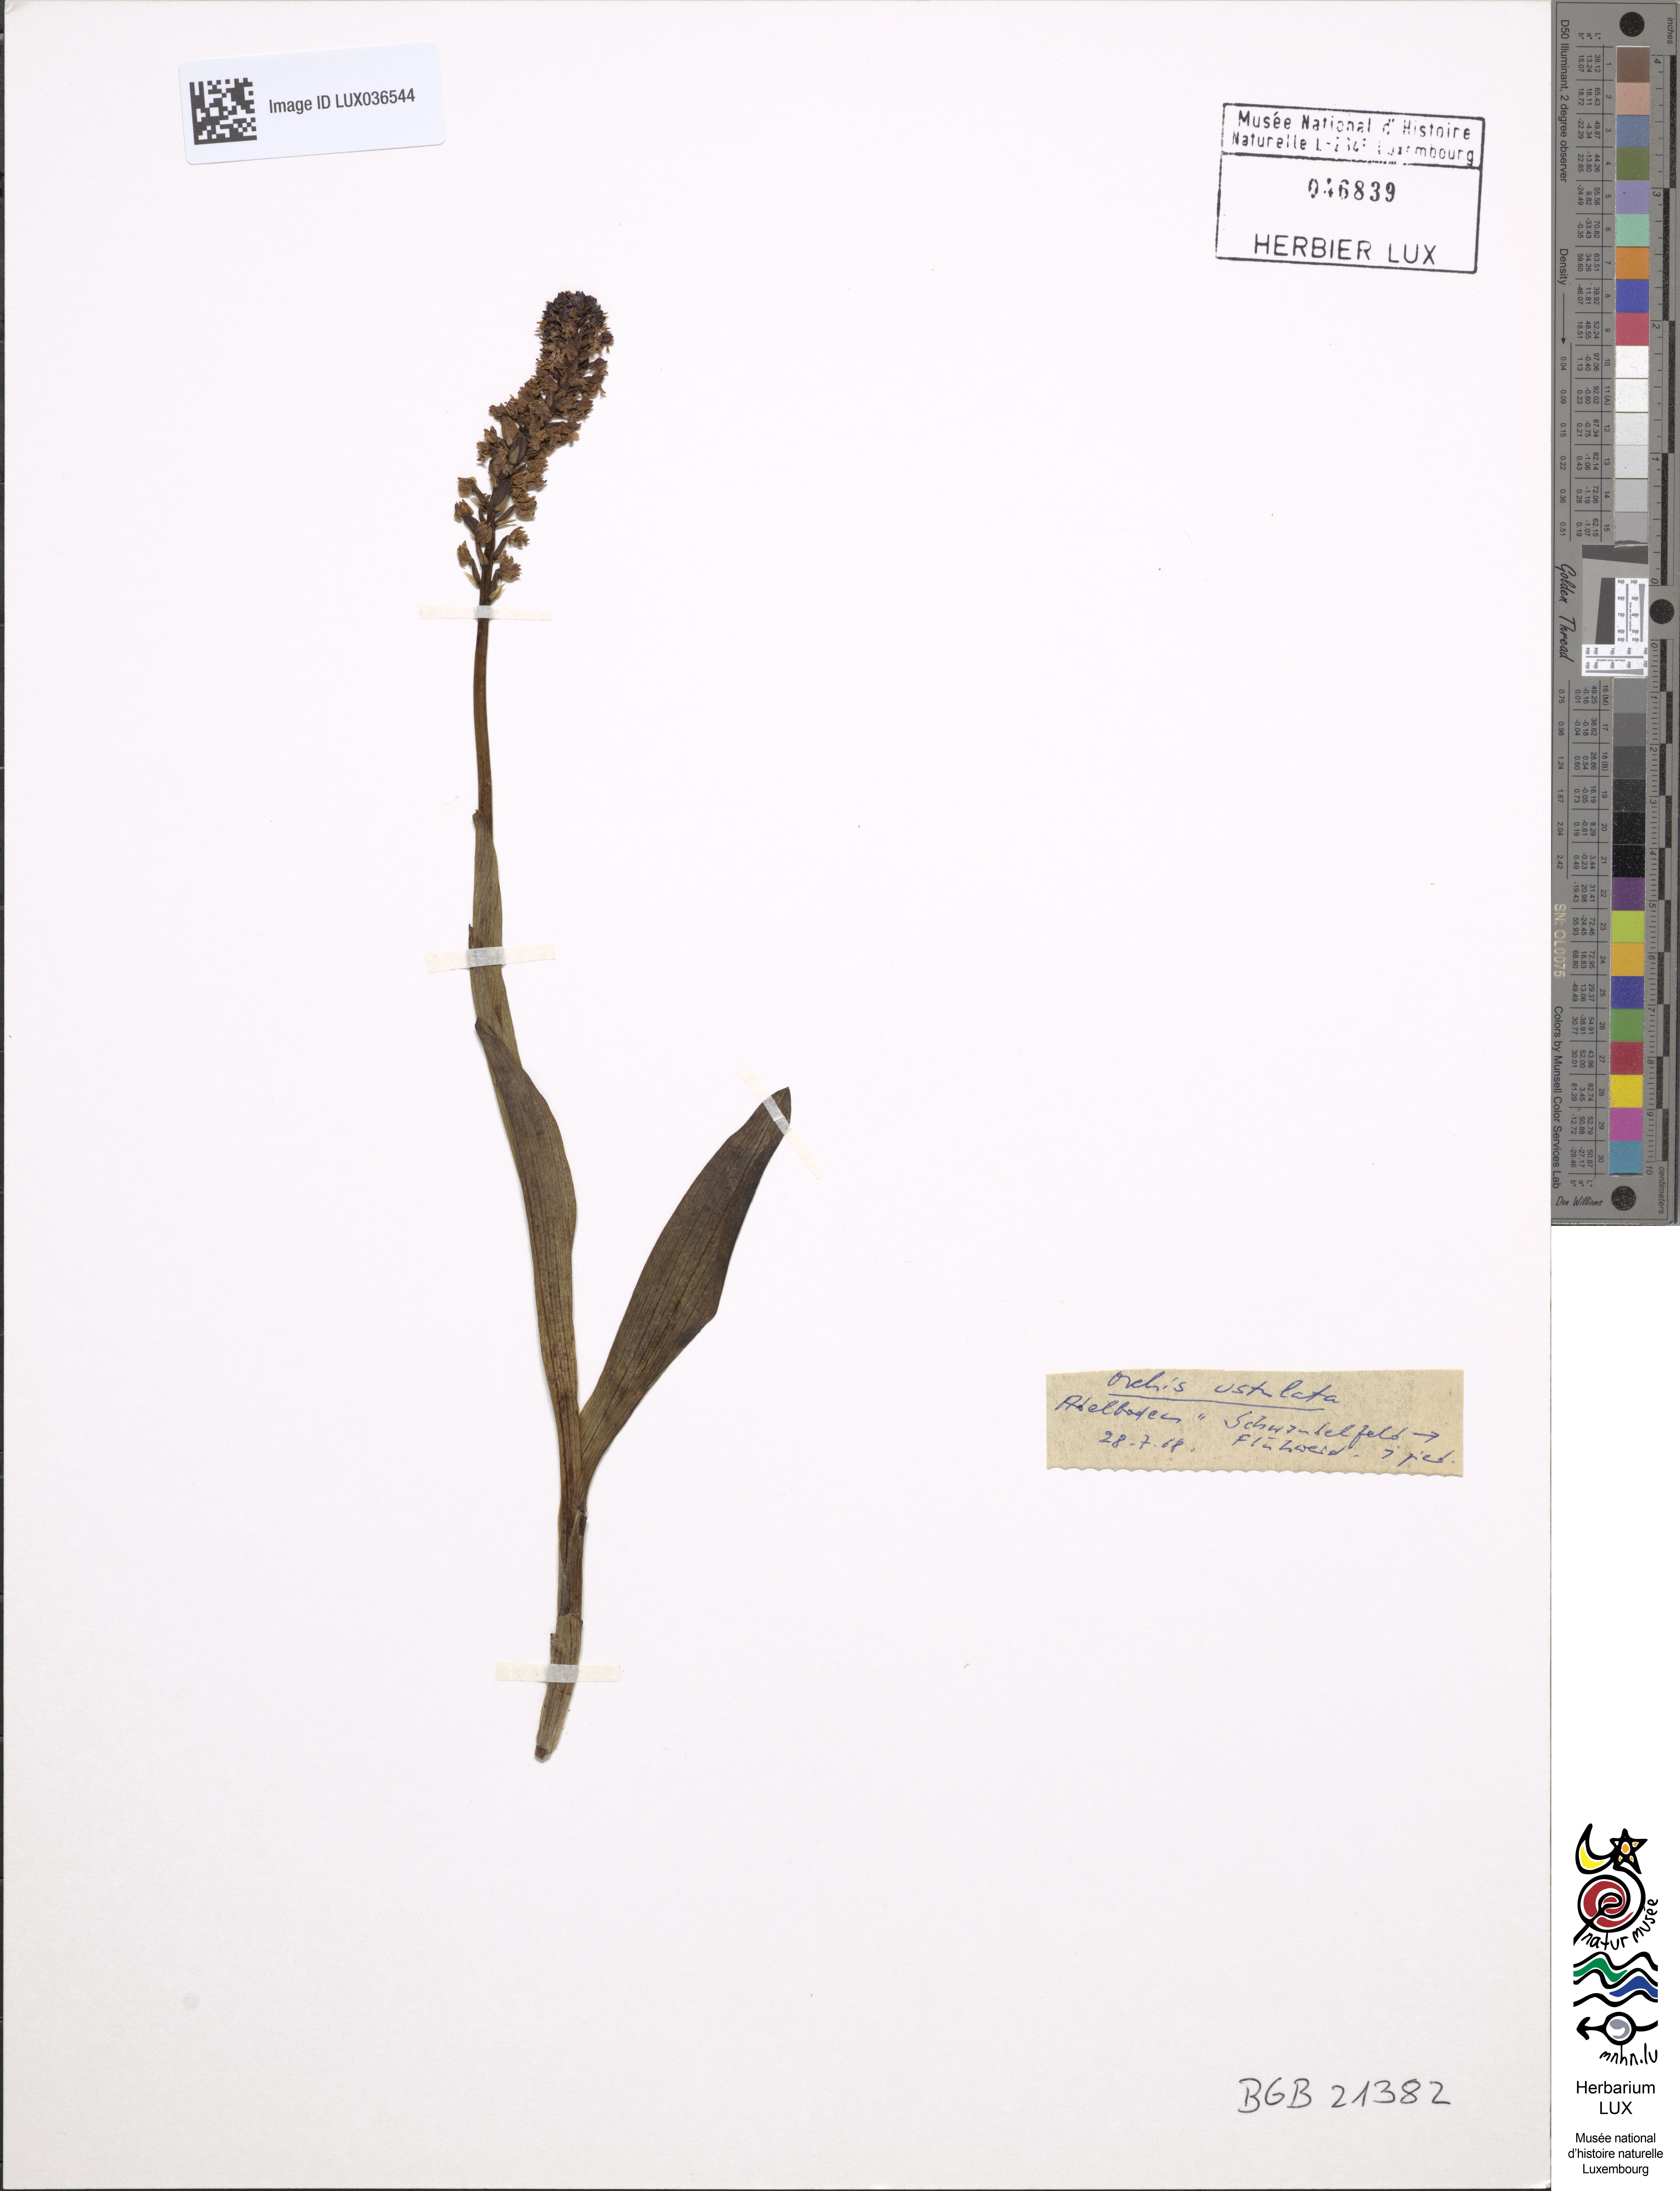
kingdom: Plantae
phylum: Tracheophyta
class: Liliopsida
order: Asparagales
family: Orchidaceae
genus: Neotinea
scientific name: Neotinea ustulata
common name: Burnt orchid
